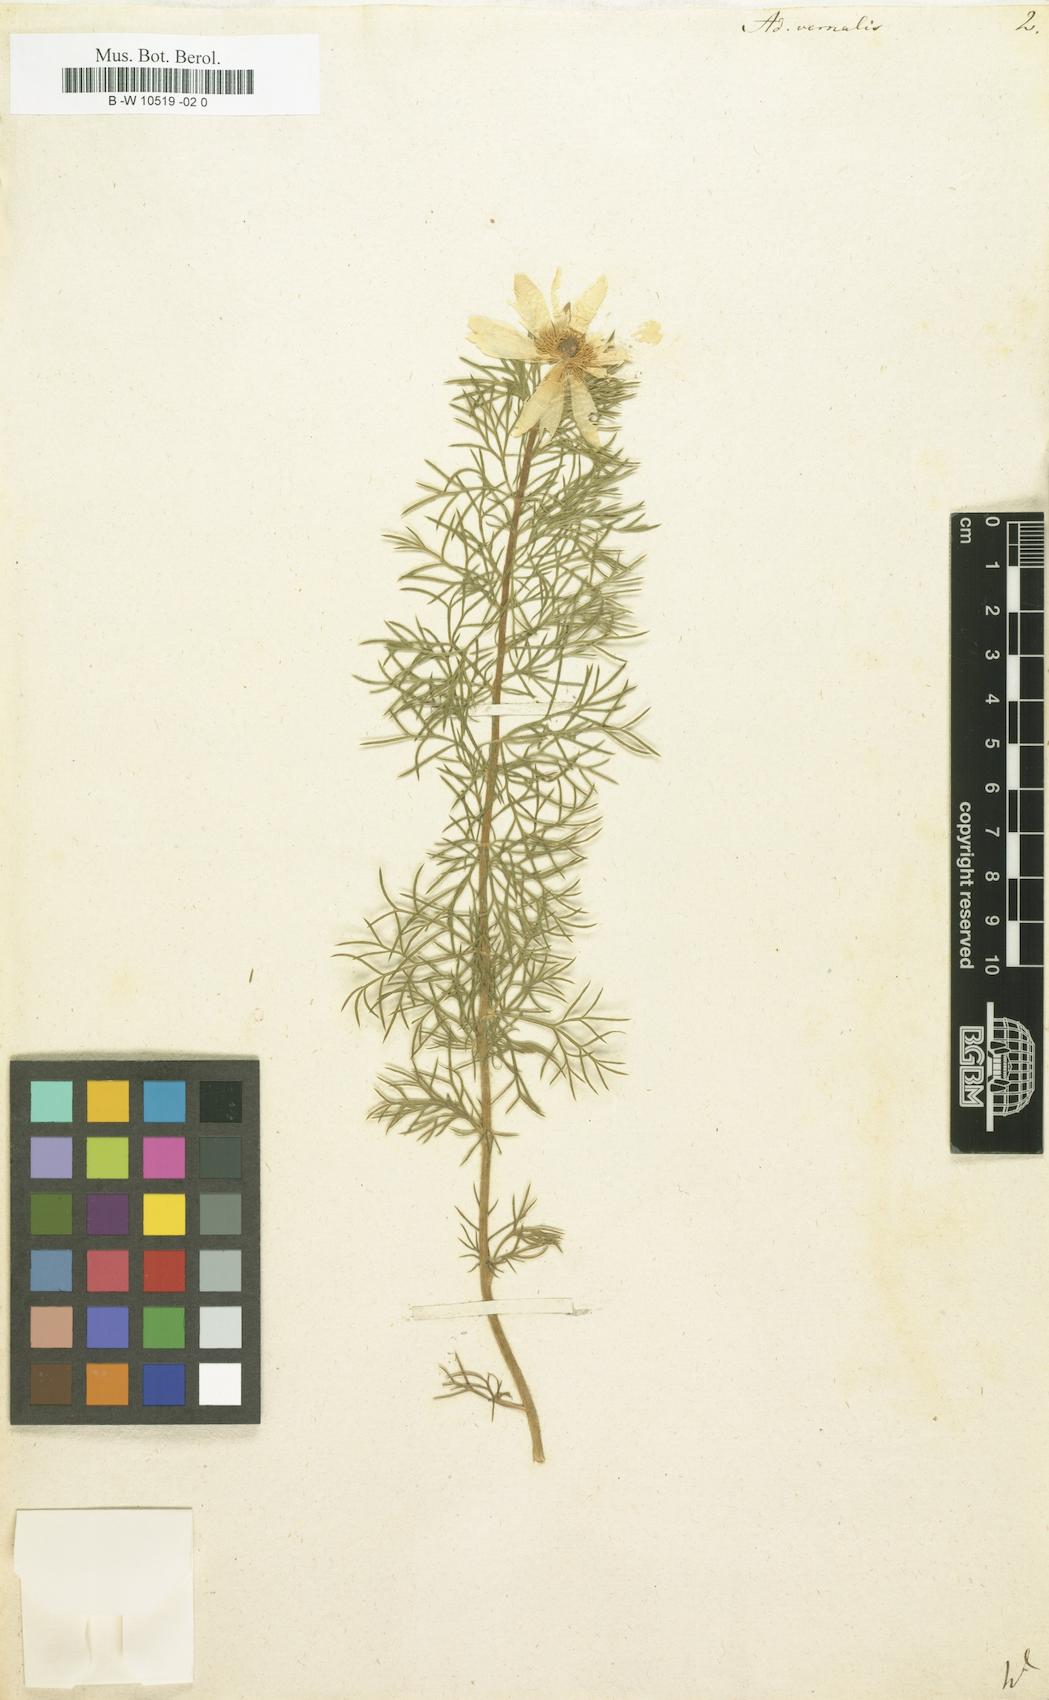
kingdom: Plantae
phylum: Tracheophyta
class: Magnoliopsida
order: Ranunculales
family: Ranunculaceae
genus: Adonis
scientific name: Adonis vernalis
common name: Yellow pheasants-eye
